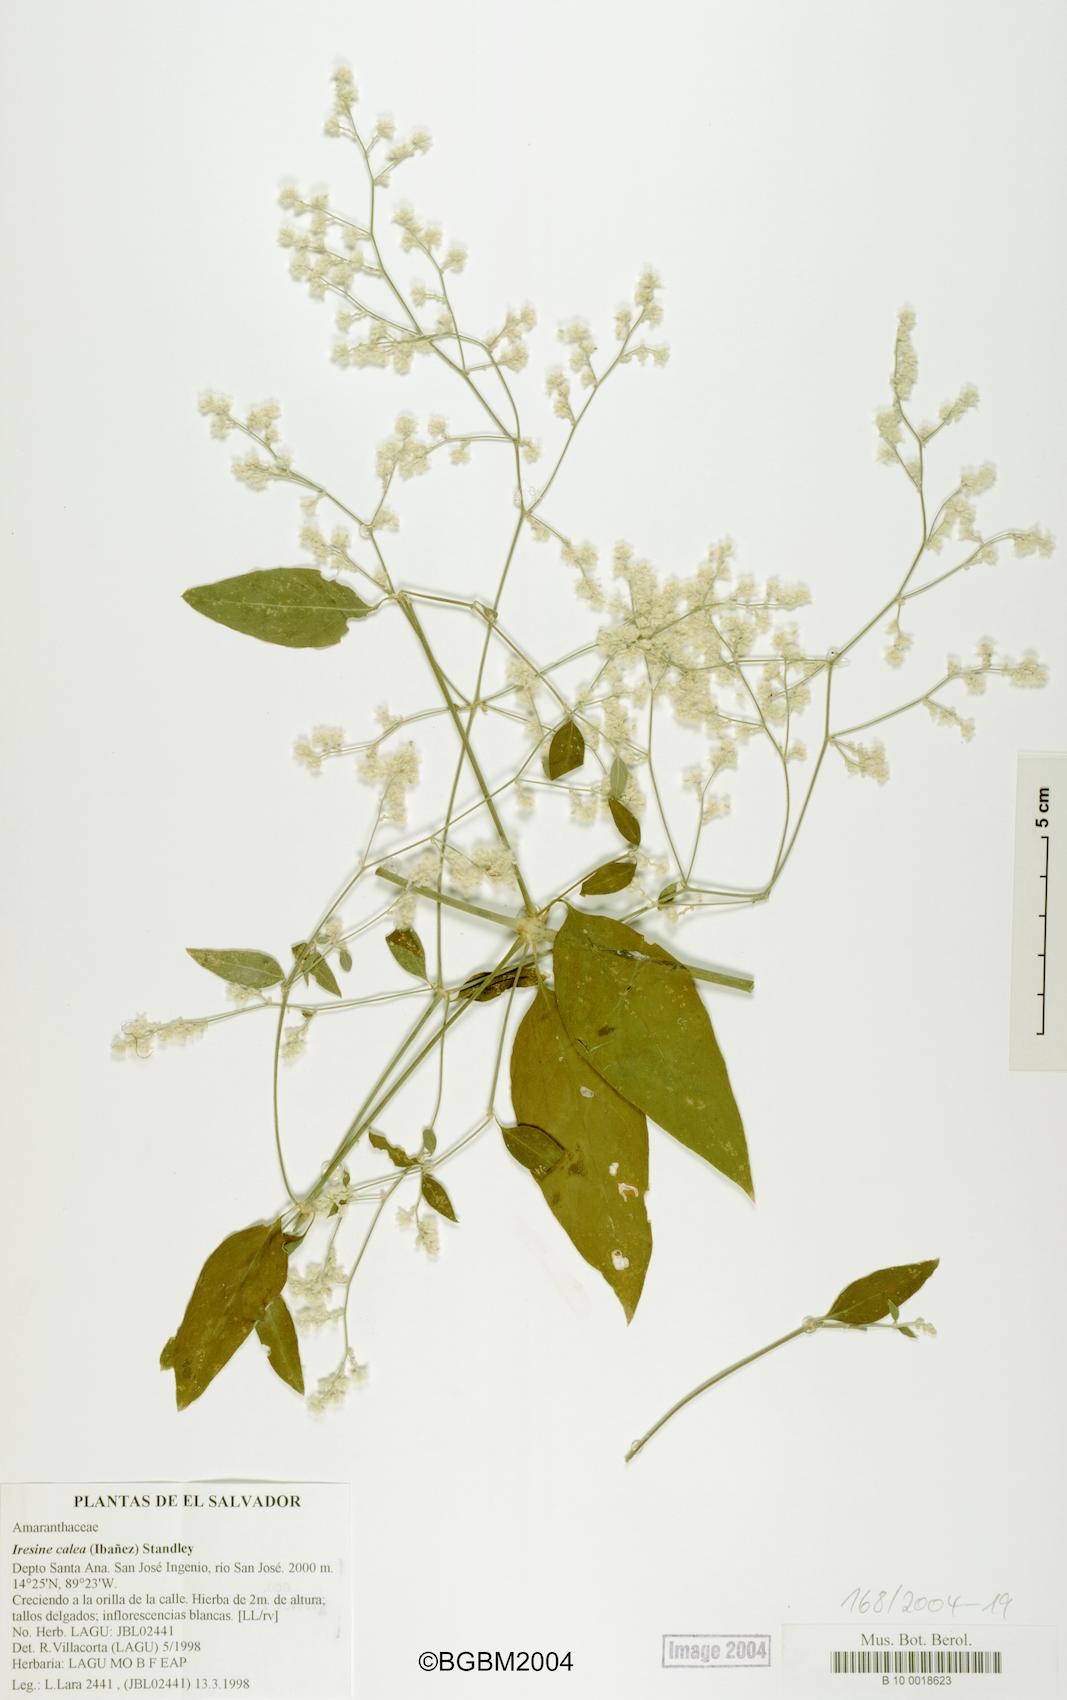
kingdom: Plantae
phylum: Tracheophyta
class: Magnoliopsida
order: Caryophyllales
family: Amaranthaceae
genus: Iresine
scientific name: Iresine latifolia
